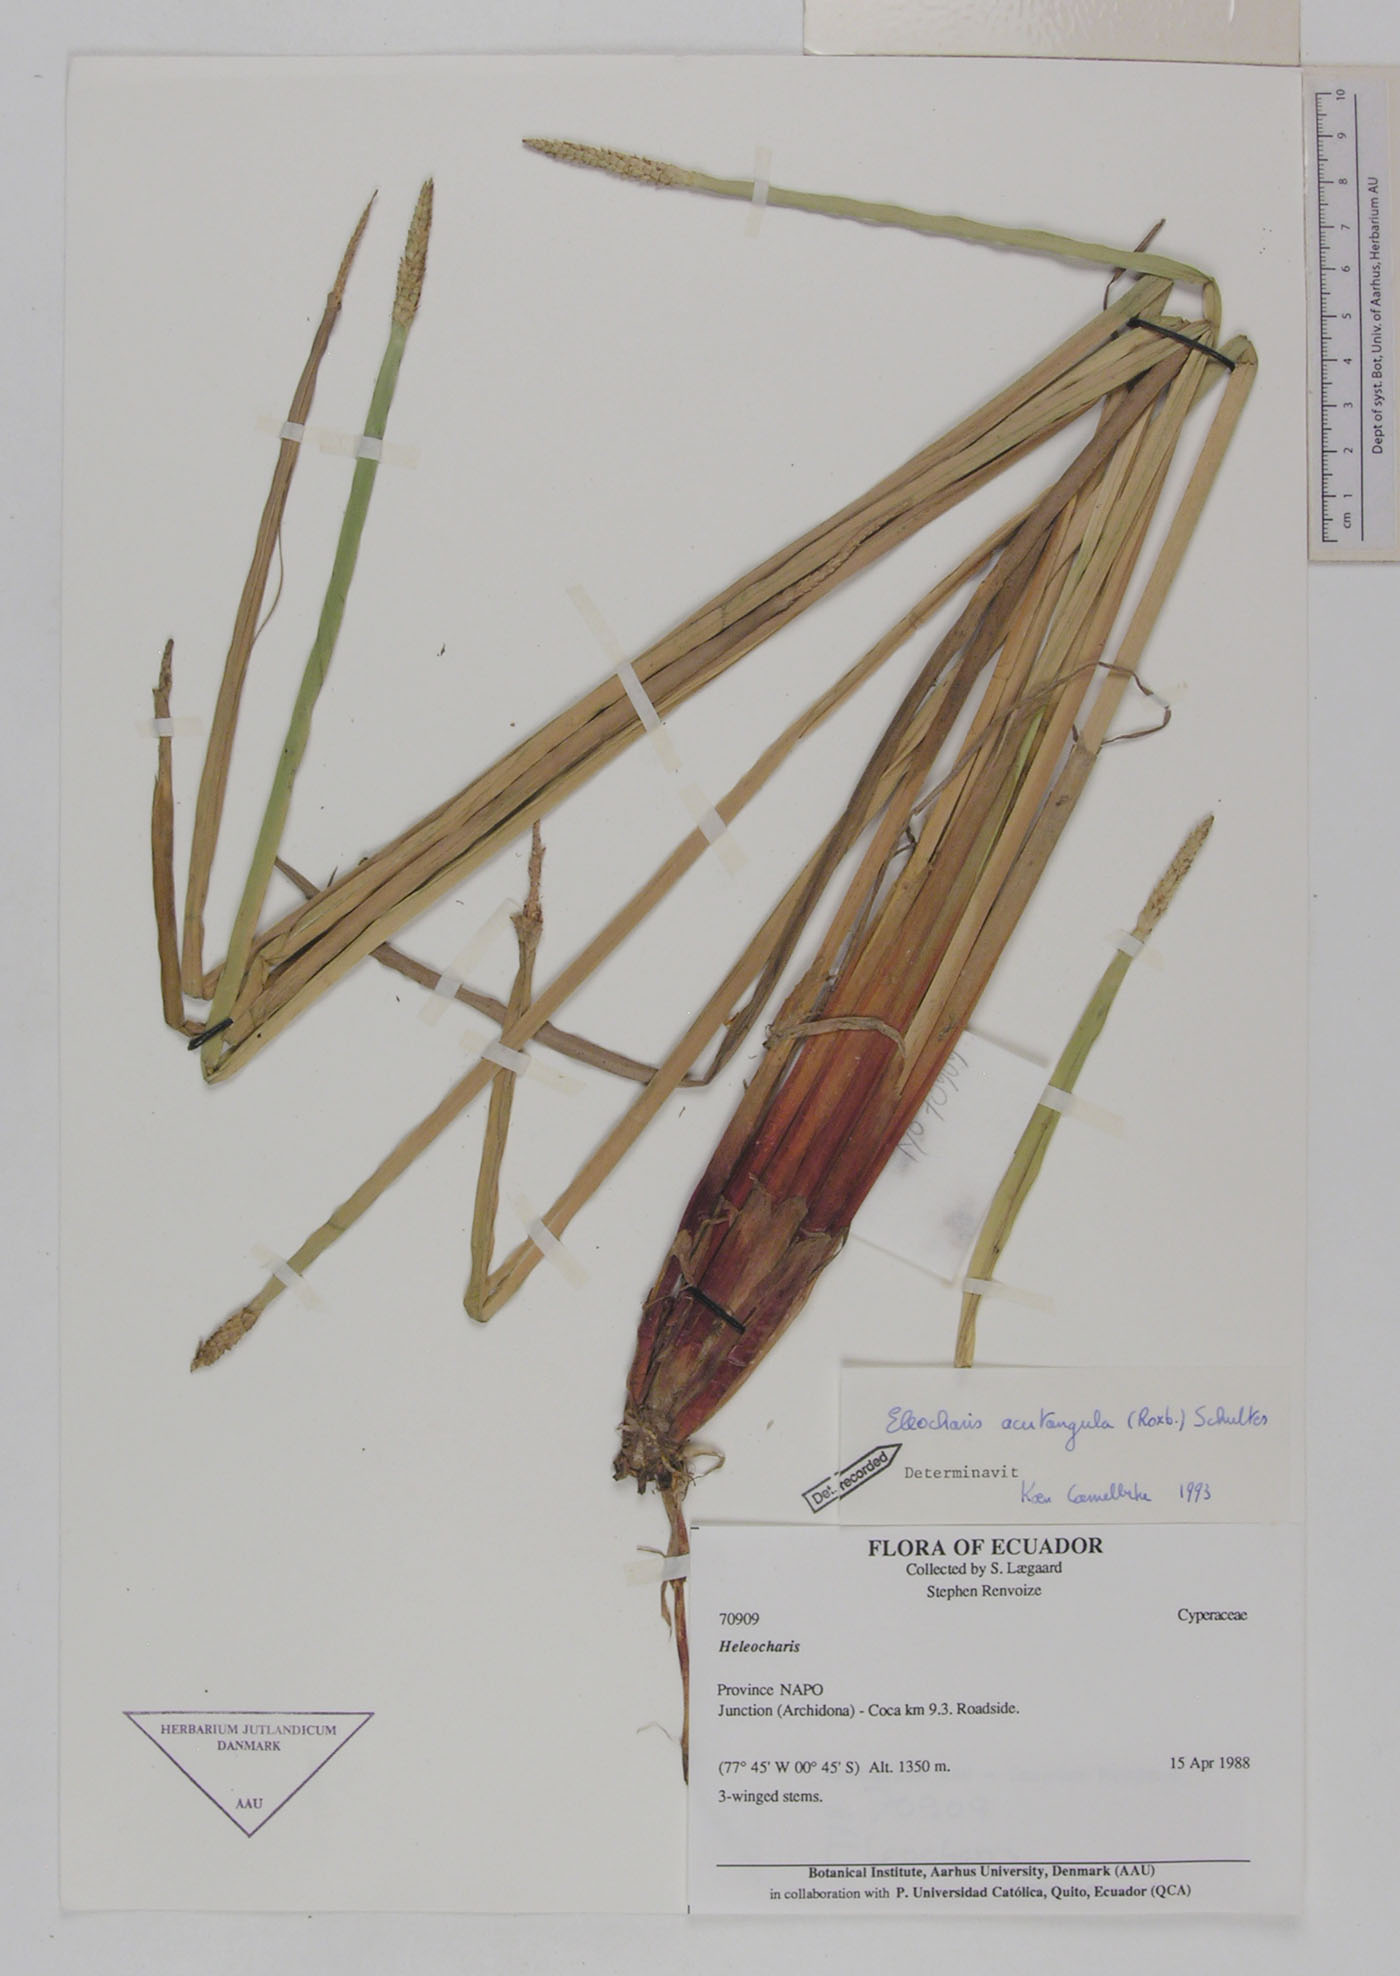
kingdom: Plantae
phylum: Tracheophyta
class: Liliopsida
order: Poales
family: Cyperaceae
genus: Eleocharis
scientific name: Eleocharis acutangula
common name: Acute spikerush
